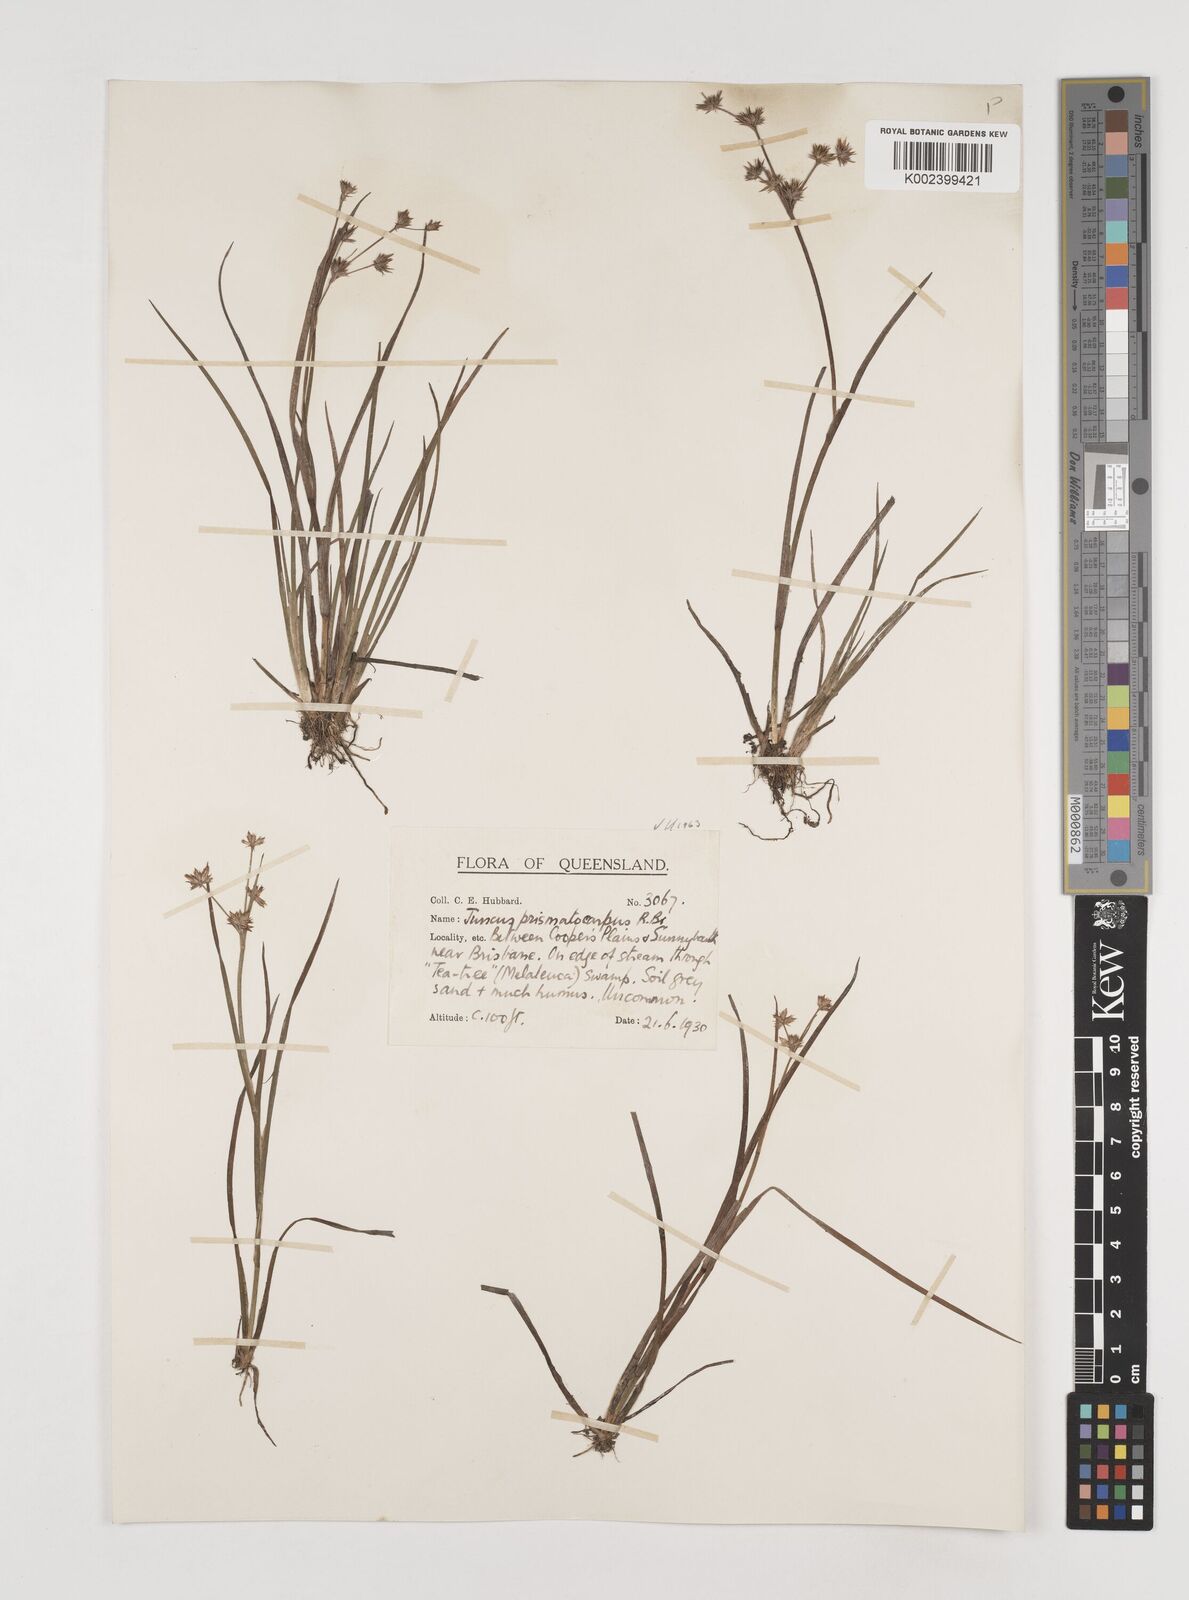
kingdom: Plantae
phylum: Tracheophyta
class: Liliopsida
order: Poales
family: Juncaceae
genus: Juncus
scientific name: Juncus prismatocarpus
